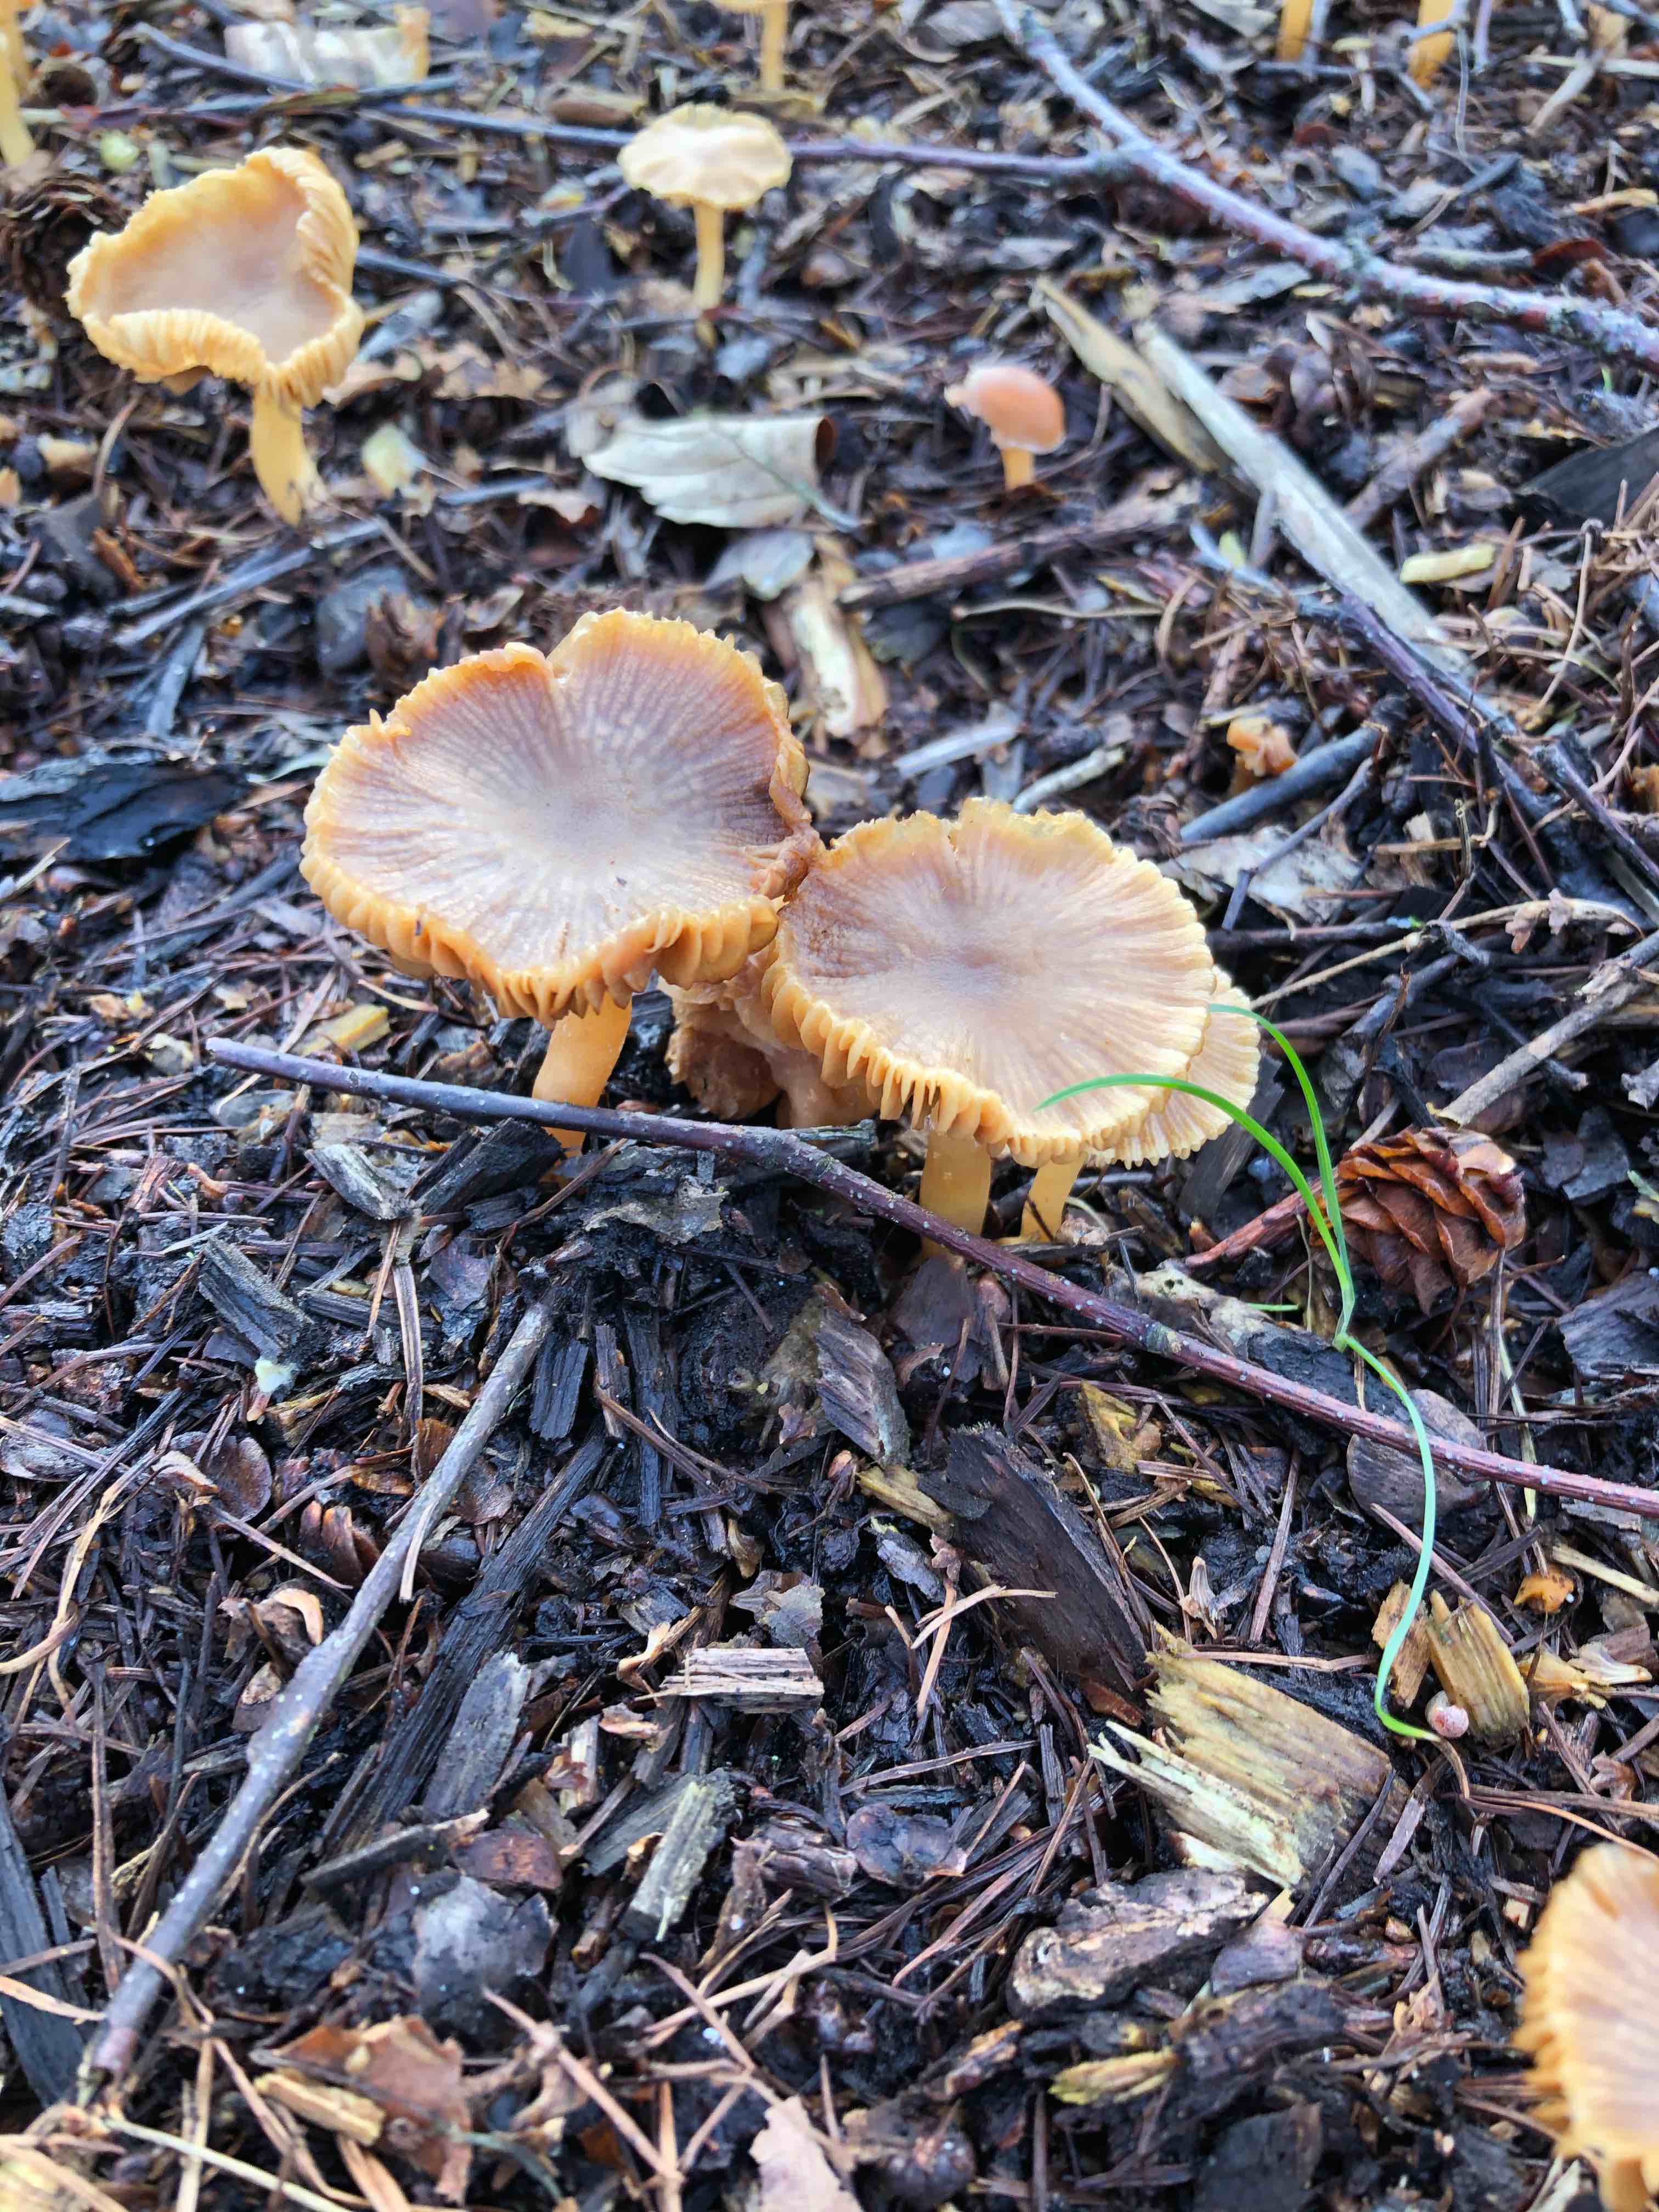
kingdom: Fungi
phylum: Basidiomycota
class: Agaricomycetes
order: Agaricales
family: Tubariaceae
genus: Tubaria
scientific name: Tubaria furfuracea
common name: kliddet fnughat
